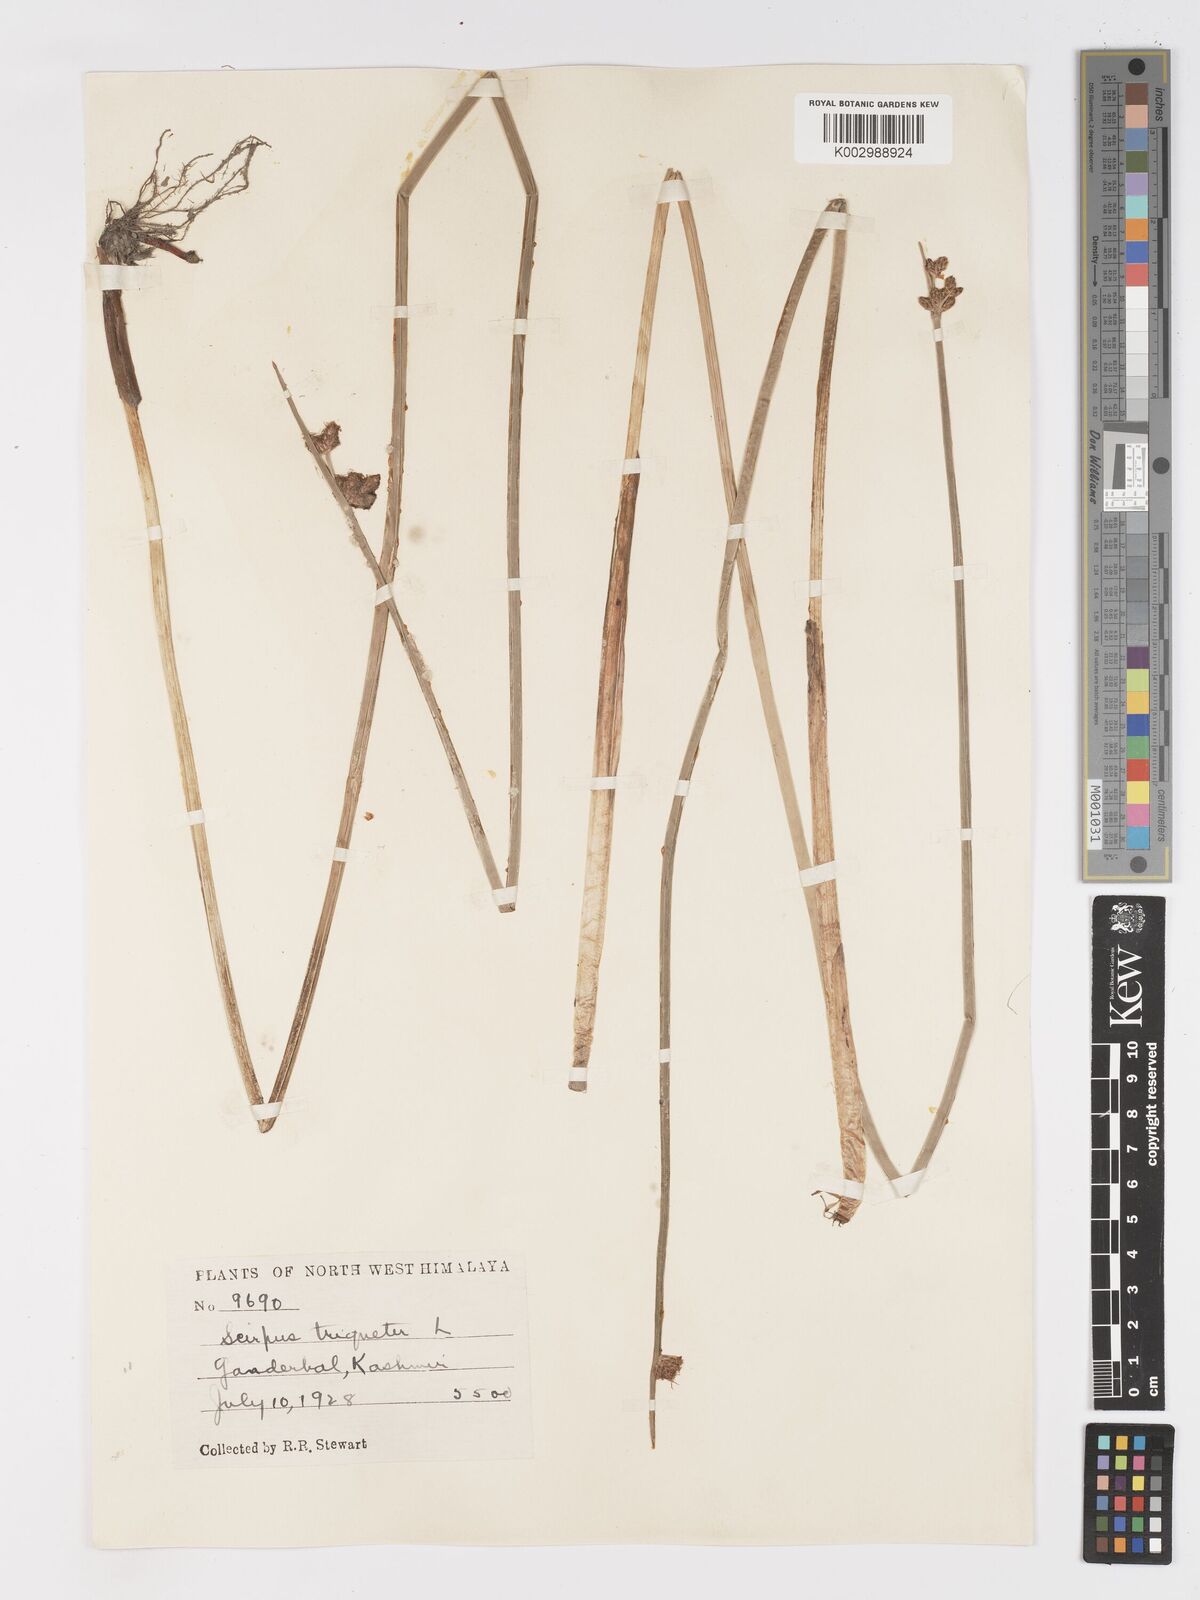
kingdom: Plantae
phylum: Tracheophyta
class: Liliopsida
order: Poales
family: Cyperaceae
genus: Schoenoplectus
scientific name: Schoenoplectus triqueter
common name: Triangular club-rush
